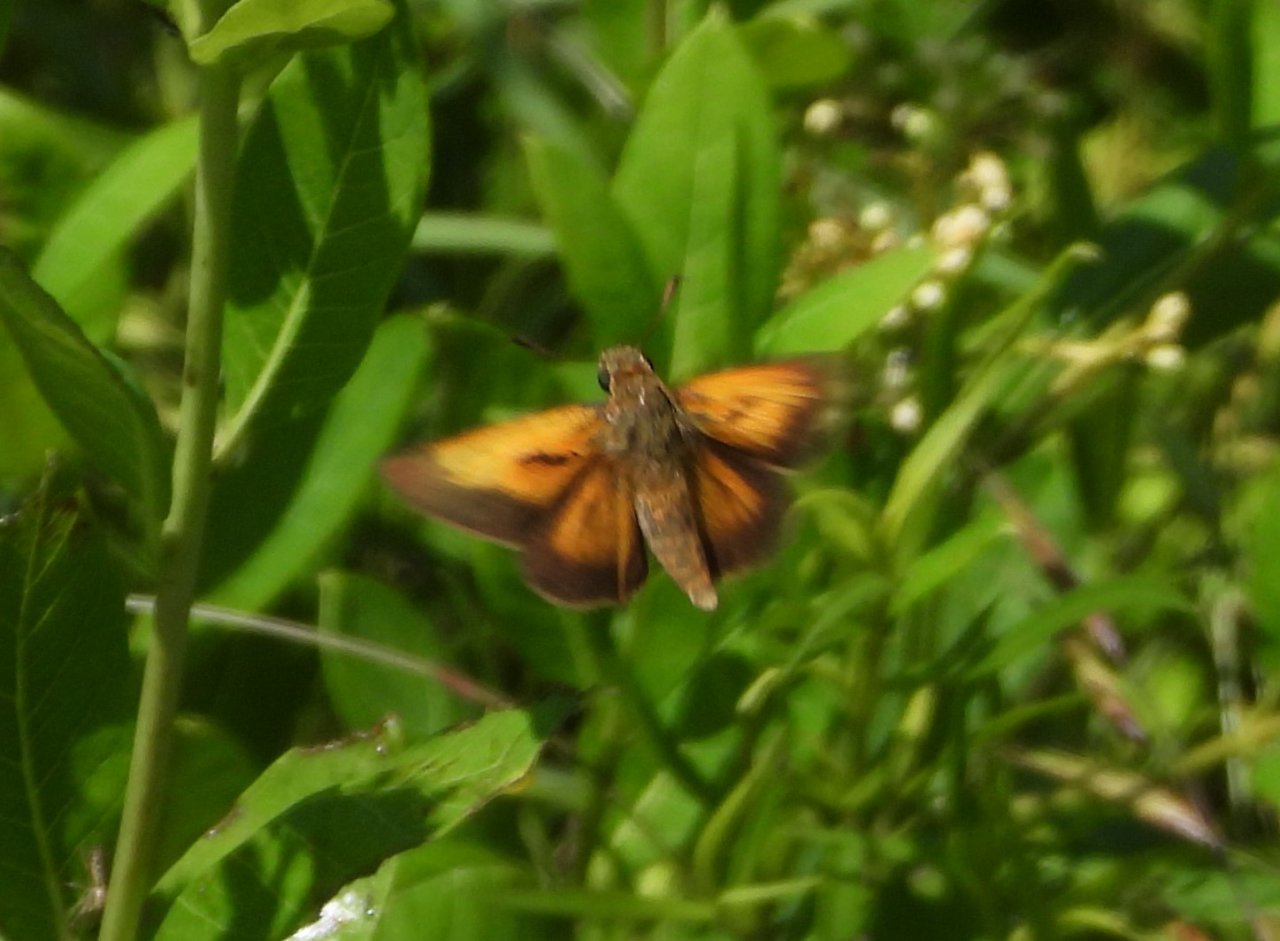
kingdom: Animalia
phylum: Arthropoda
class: Insecta
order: Lepidoptera
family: Hesperiidae
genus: Poanes
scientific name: Poanes aaroni
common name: Aaron's Skipper
